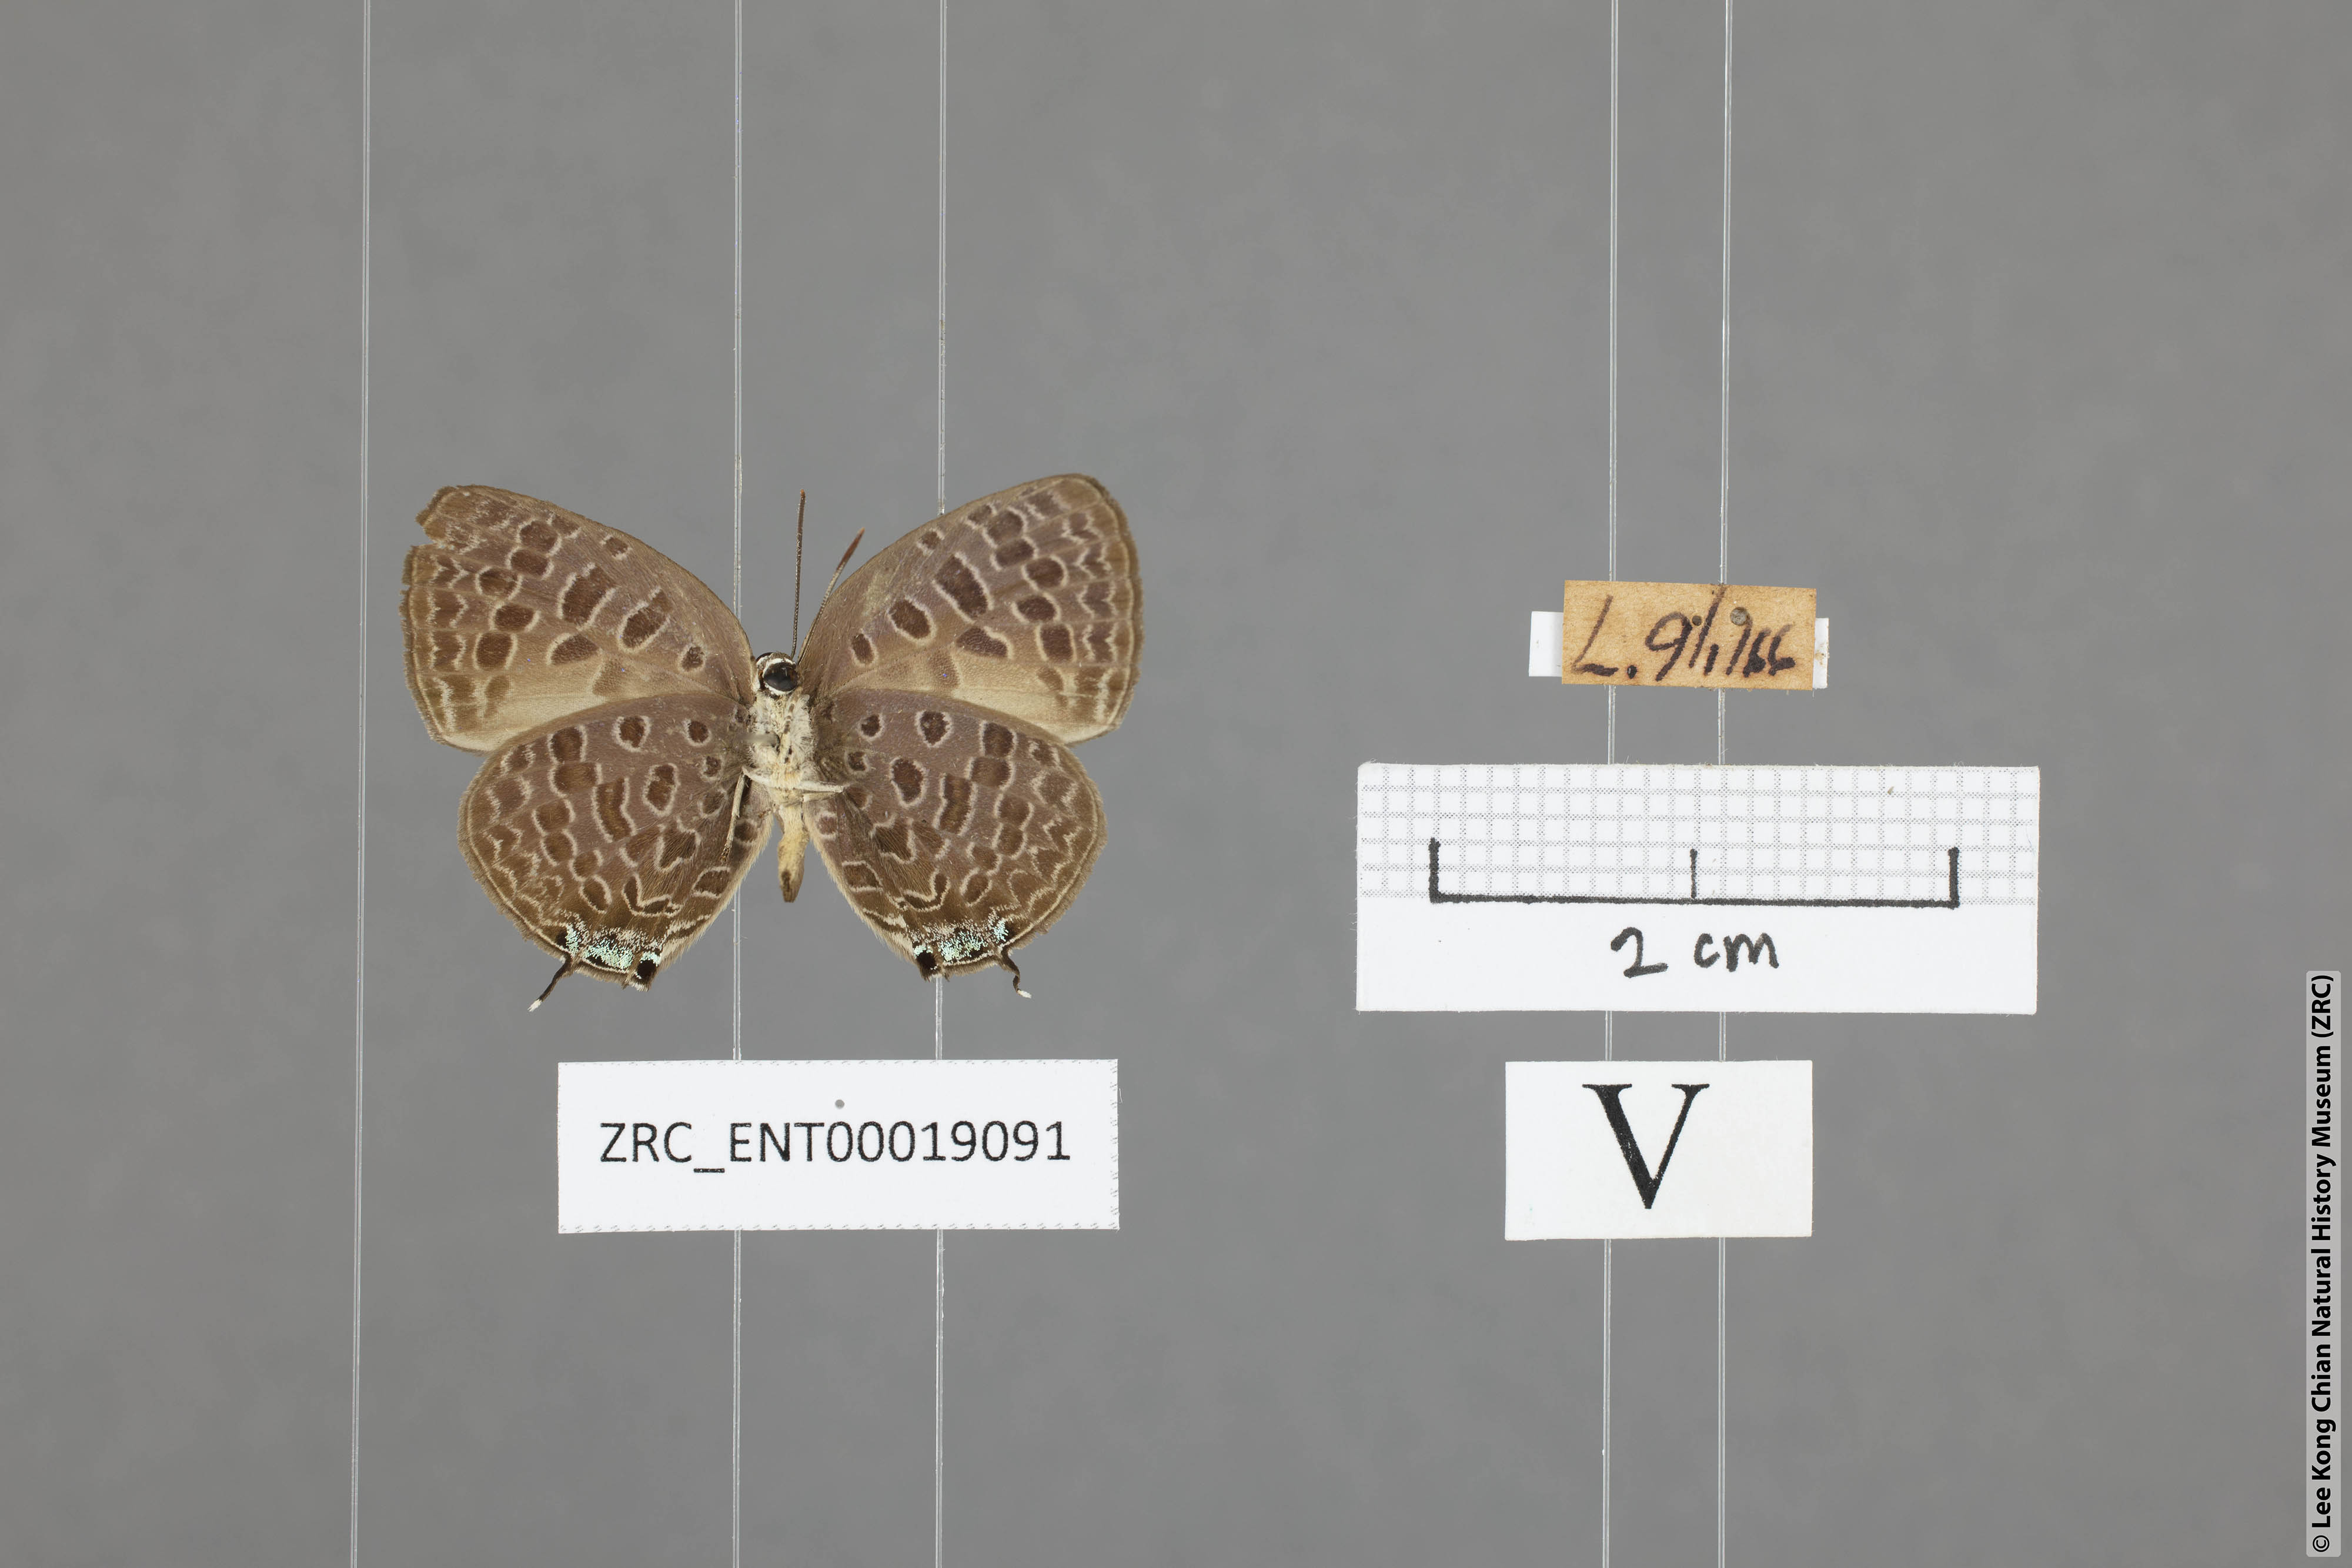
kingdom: Animalia
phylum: Arthropoda
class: Insecta
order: Lepidoptera
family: Lycaenidae
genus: Arhopala
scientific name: Arhopala alitaeus
